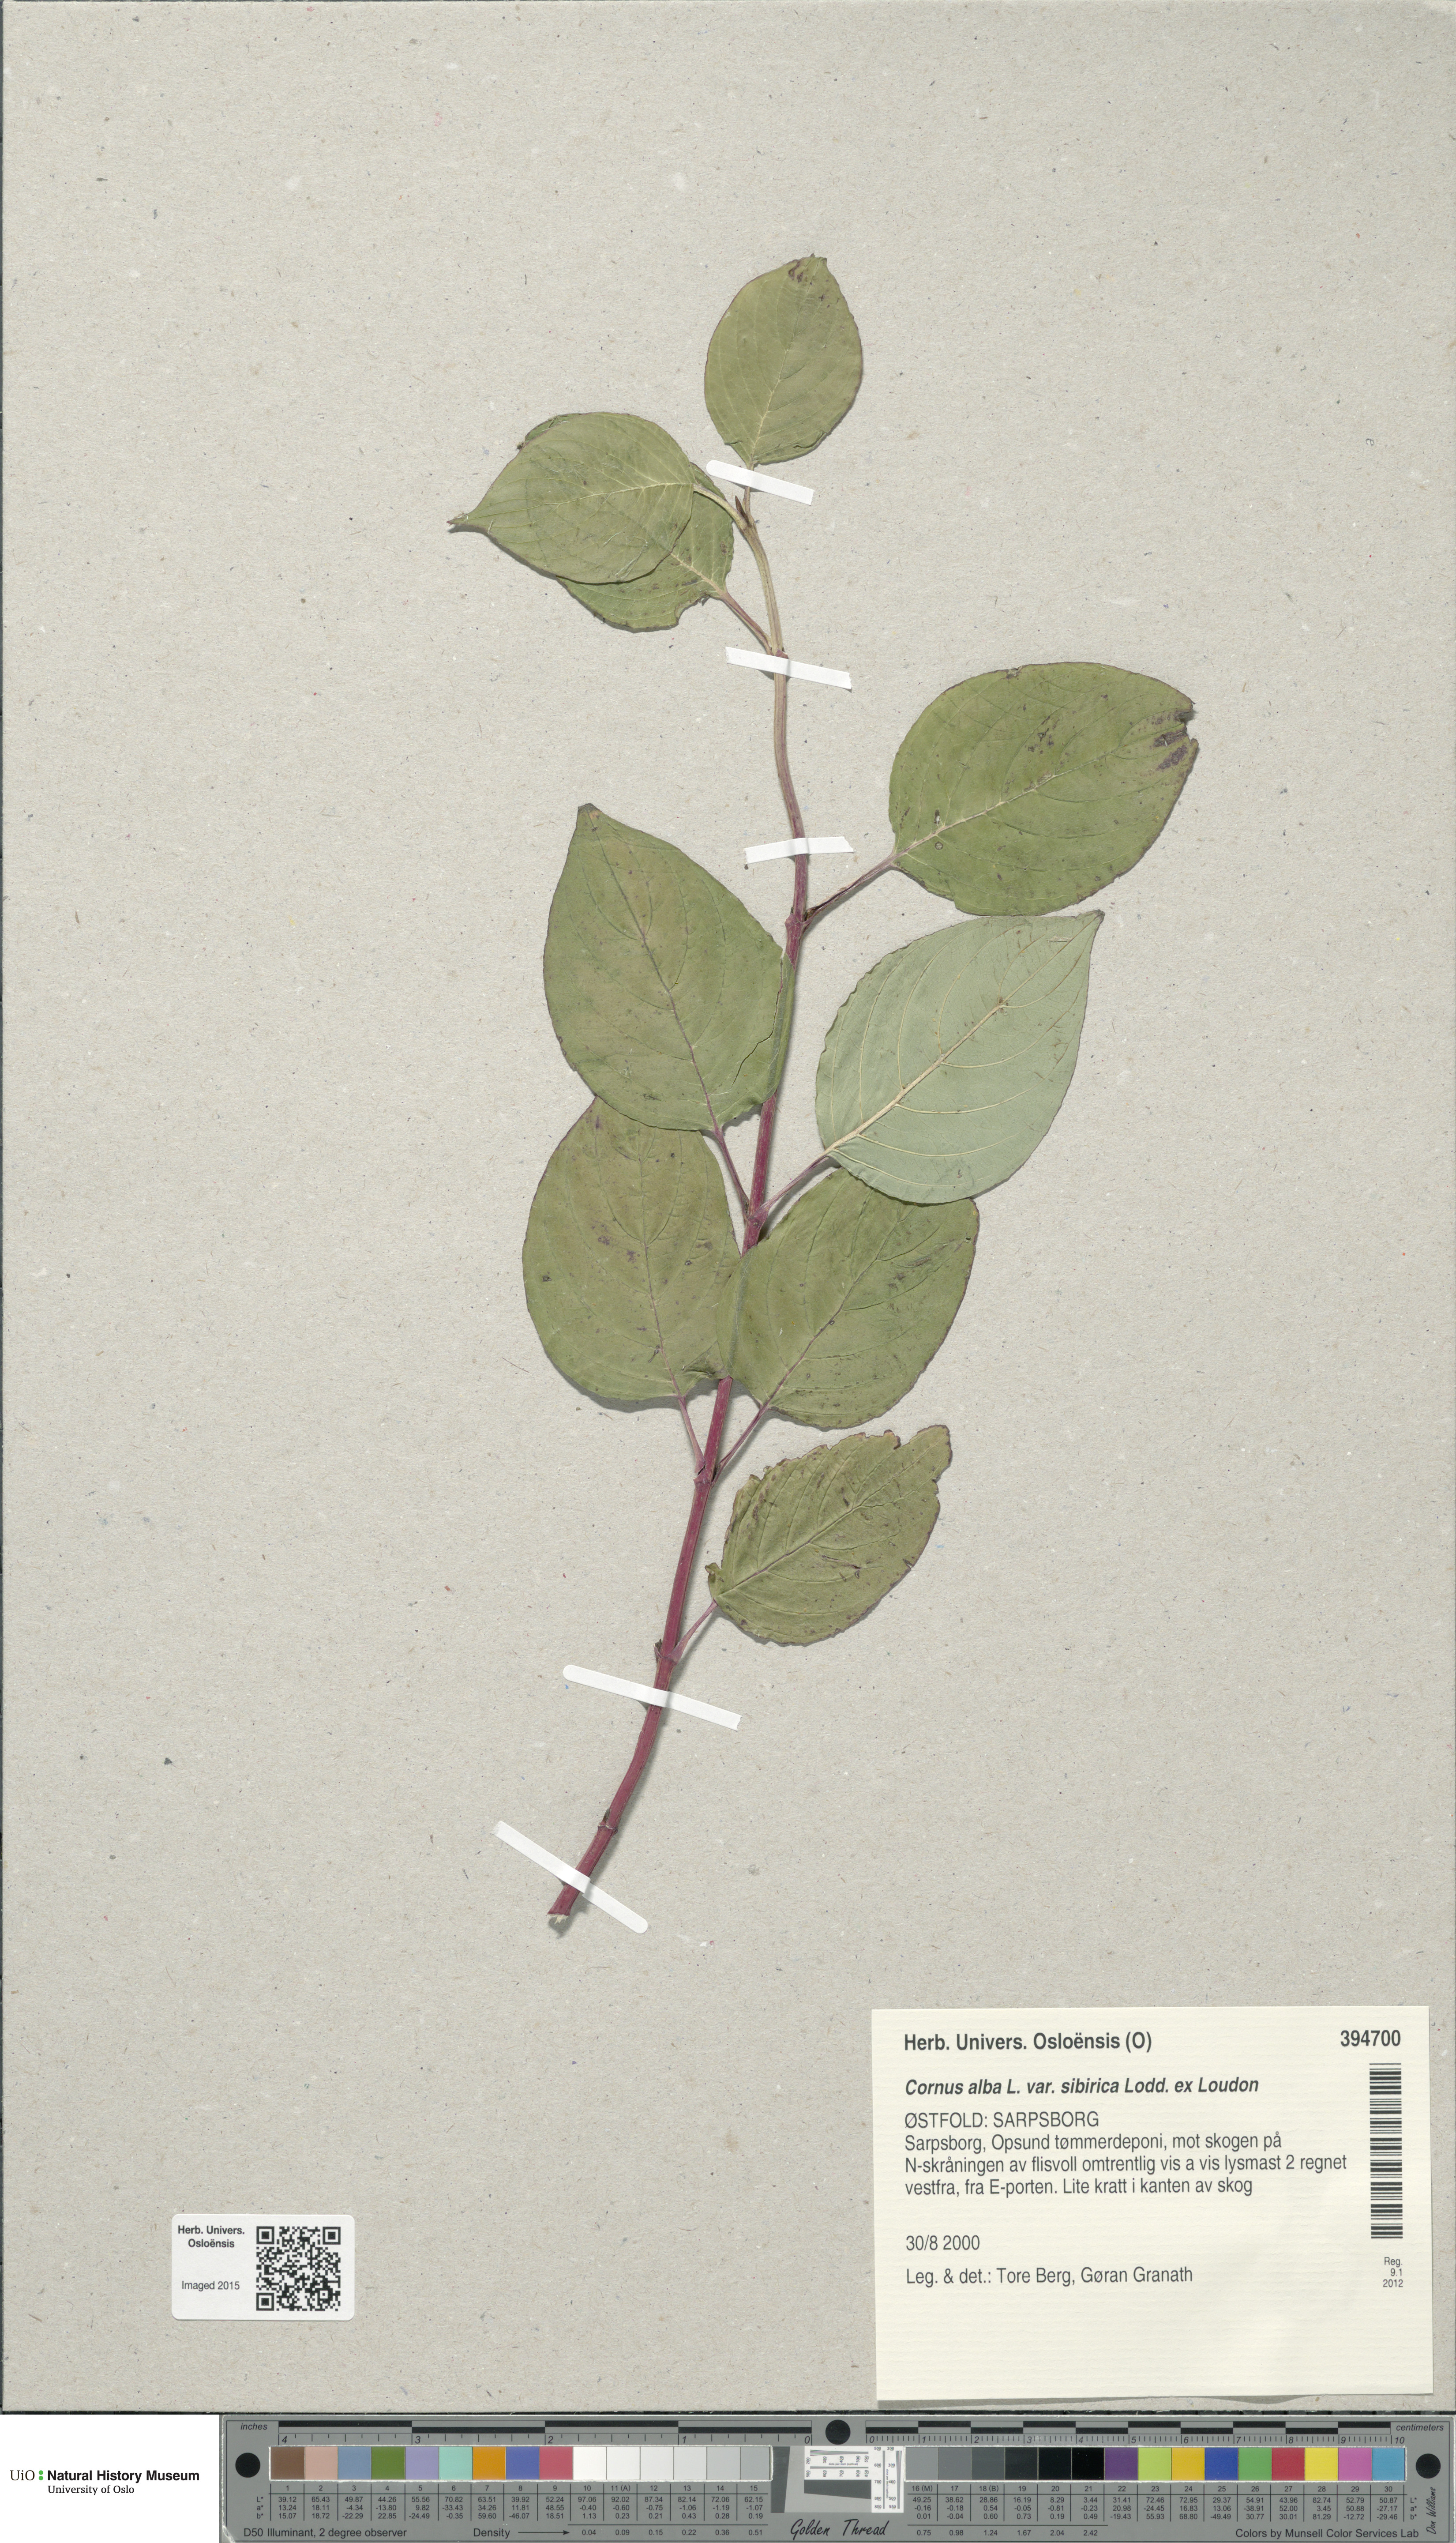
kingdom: Plantae
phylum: Tracheophyta
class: Magnoliopsida
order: Cornales
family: Cornaceae
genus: Cornus
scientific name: Cornus alba
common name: White dogwood
